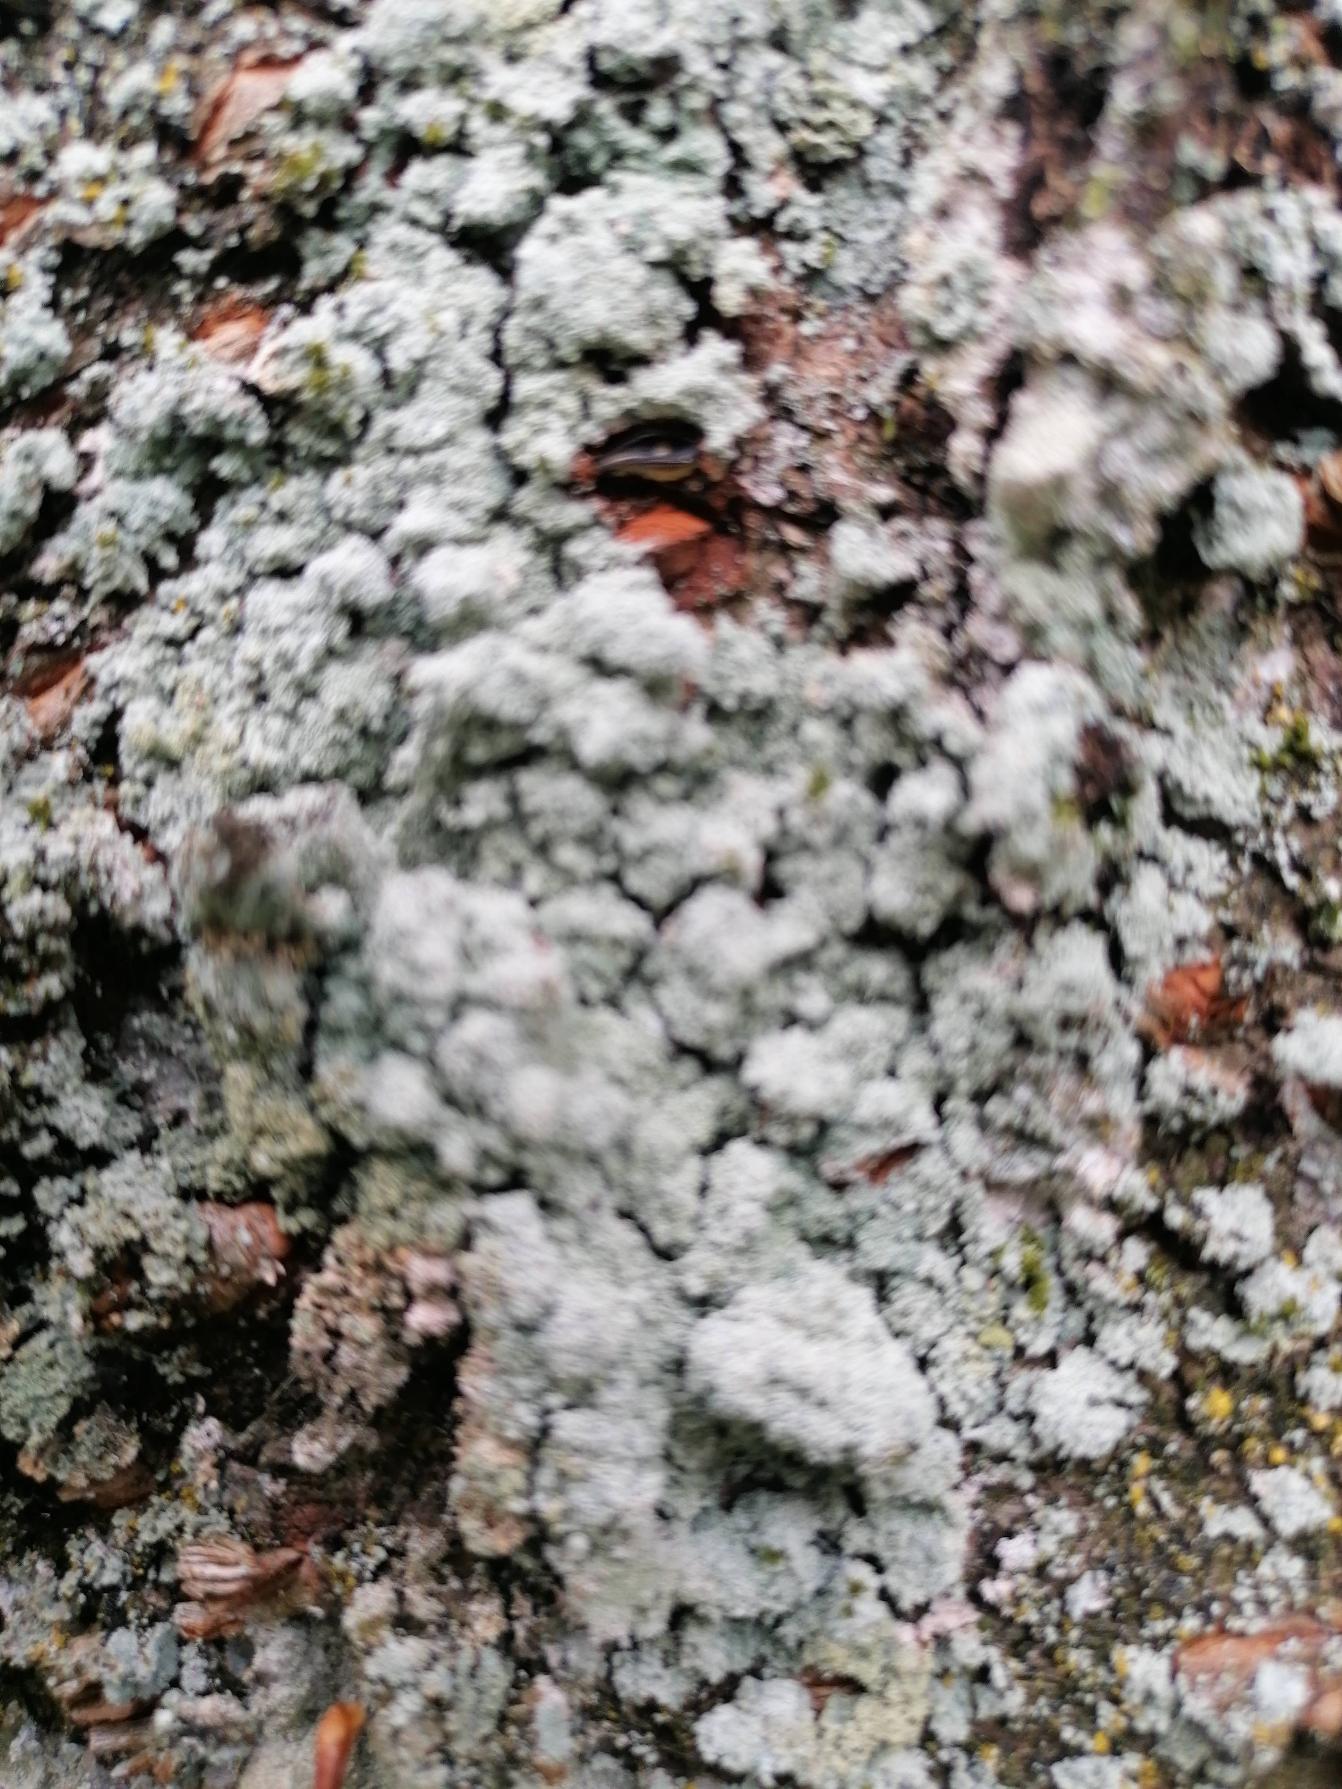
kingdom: Fungi
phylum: Ascomycota
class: Lecanoromycetes
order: Lecanorales
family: Stereocaulaceae
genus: Lepraria
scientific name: Lepraria
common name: Støvlav
